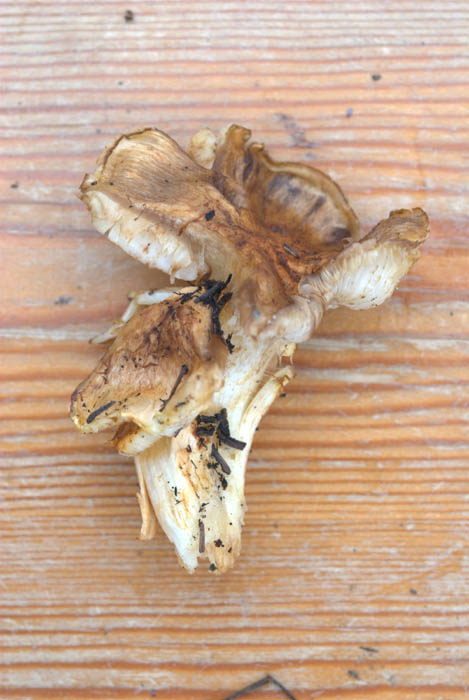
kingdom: Fungi
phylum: Basidiomycota
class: Agaricomycetes
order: Agaricales
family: Tricholomataceae
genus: Tricholoma
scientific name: Tricholoma focale
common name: halsbånd-ridderhat
